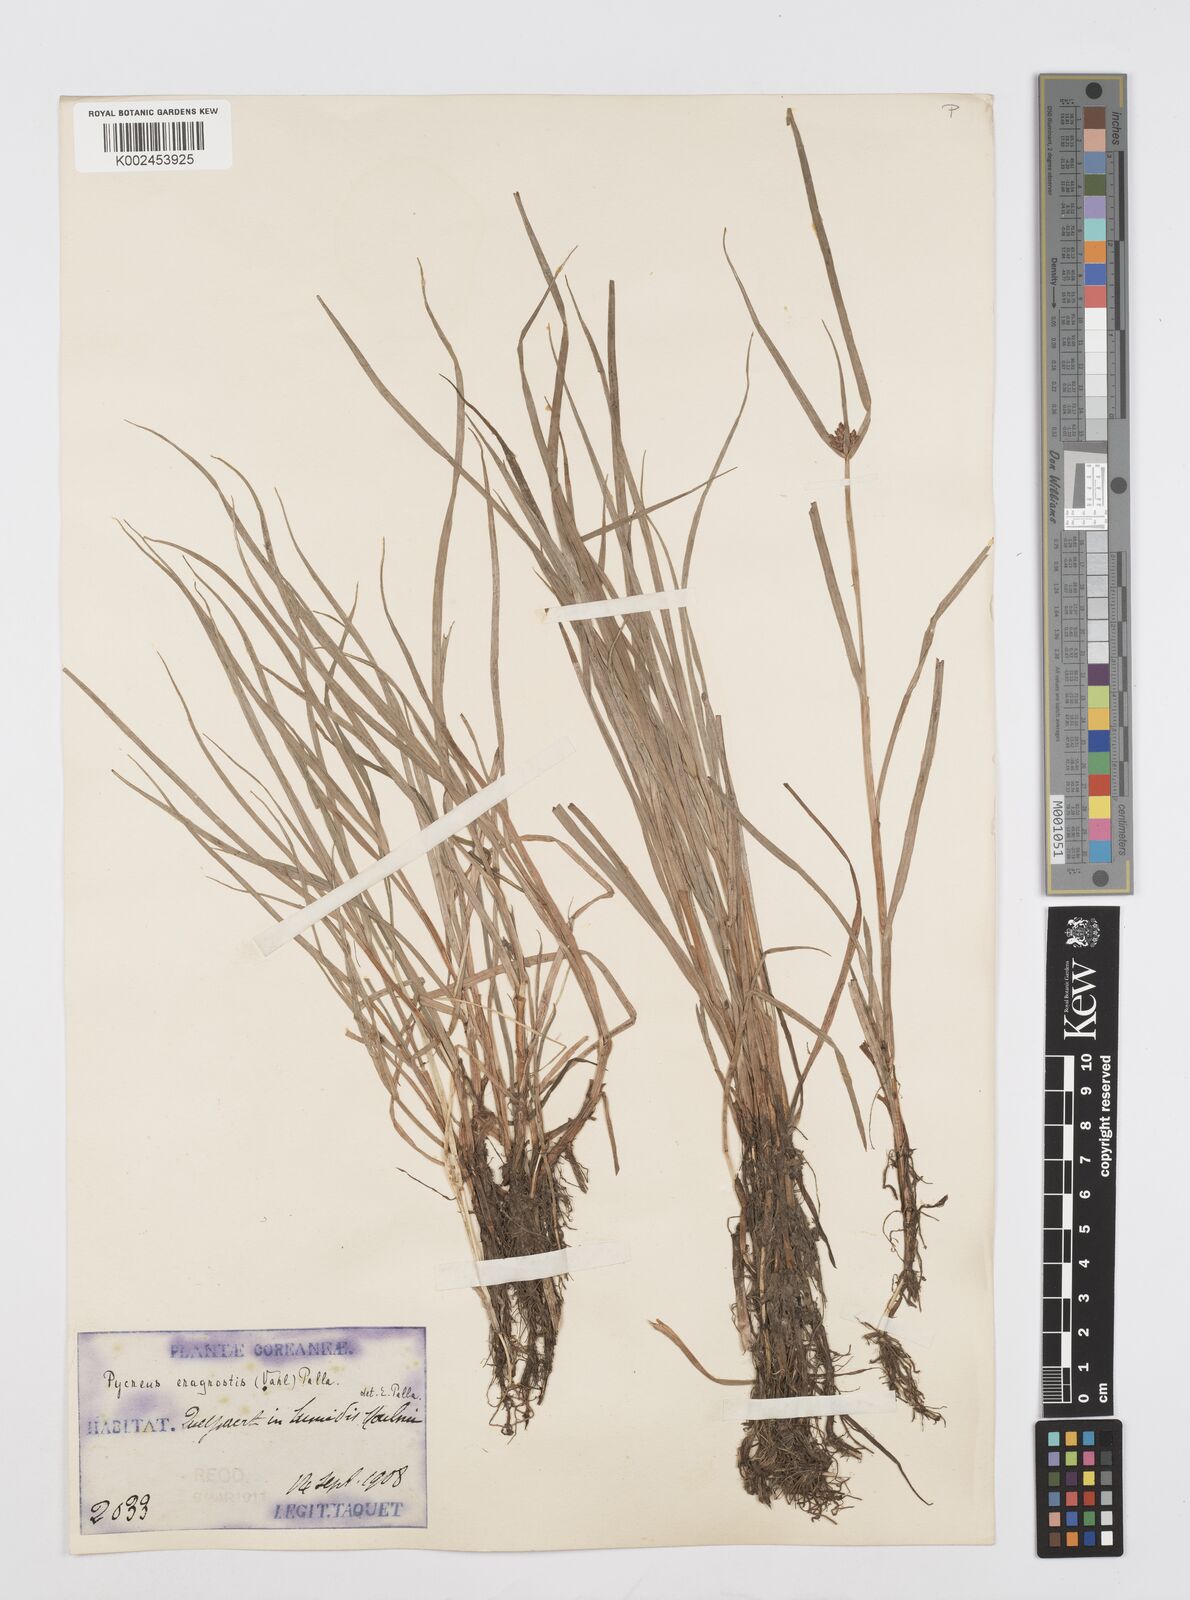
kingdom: Plantae
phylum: Tracheophyta
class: Liliopsida
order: Poales
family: Cyperaceae
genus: Cyperus
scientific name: Cyperus sanguinolentus
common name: Purpleglume flatsedge
